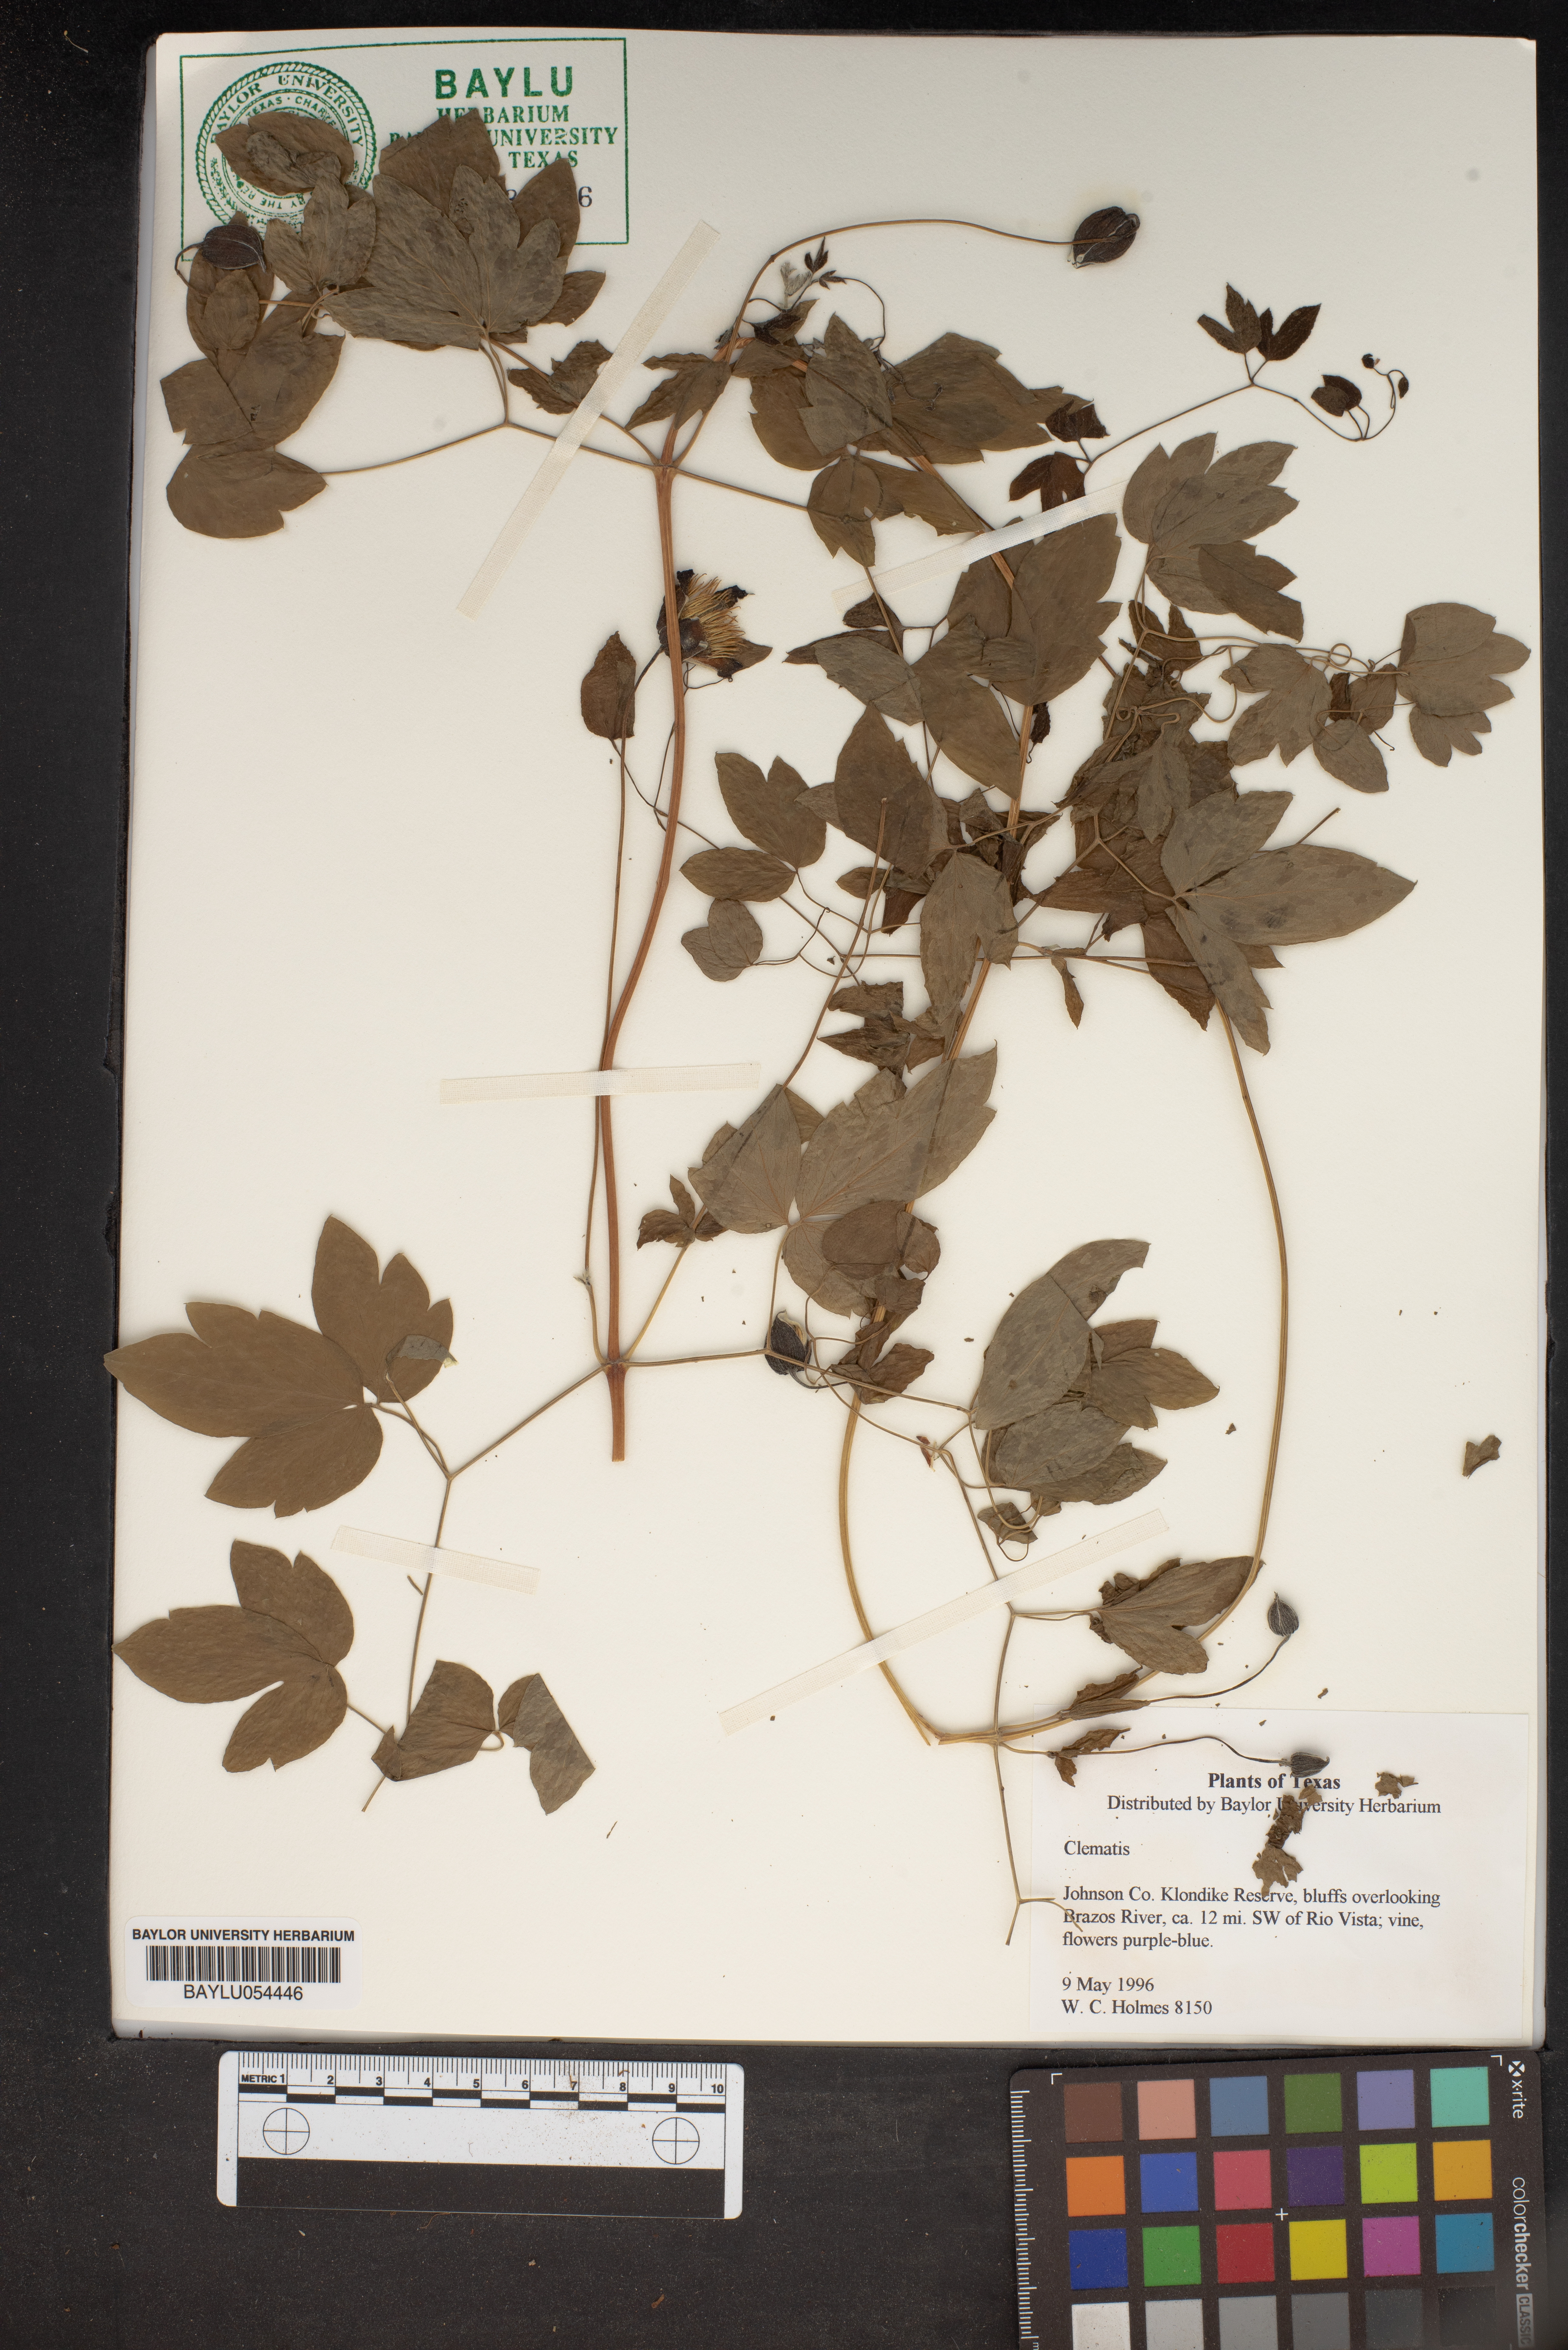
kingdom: Plantae
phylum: Tracheophyta
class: Magnoliopsida
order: Ranunculales
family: Ranunculaceae
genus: Clematis
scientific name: Clematis
